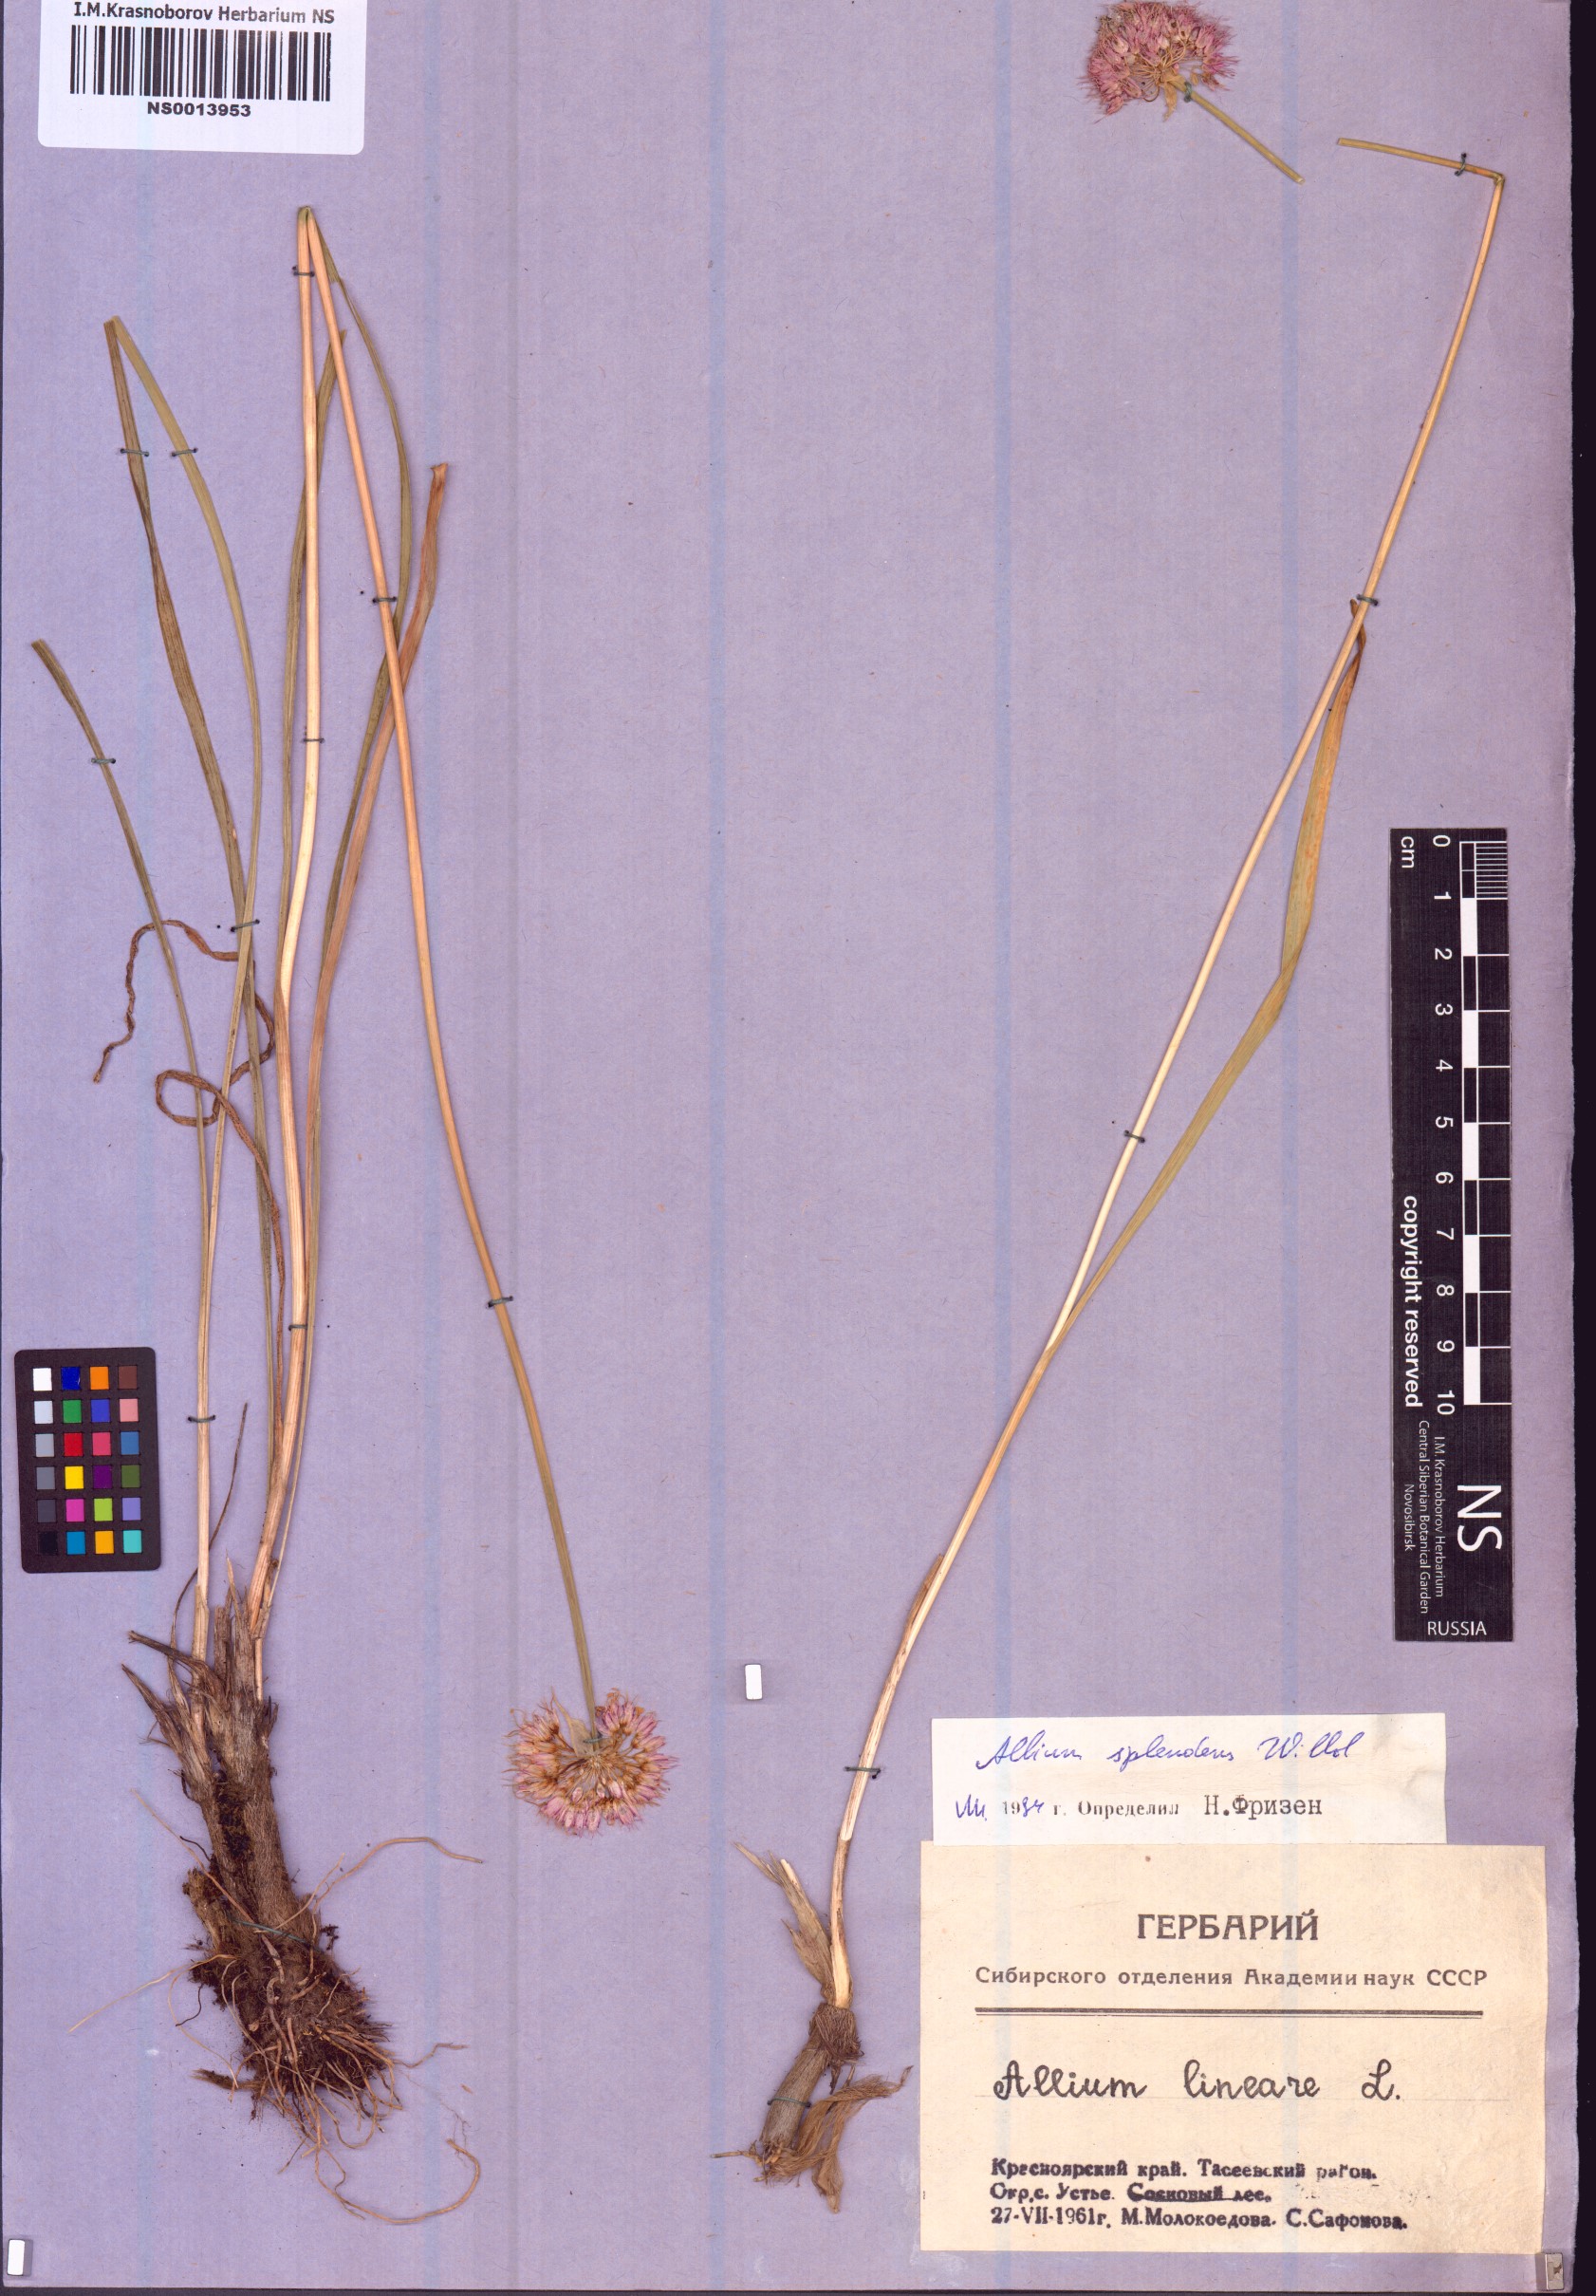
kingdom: Plantae
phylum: Tracheophyta
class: Liliopsida
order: Asparagales
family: Amaryllidaceae
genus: Allium
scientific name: Allium splendens
